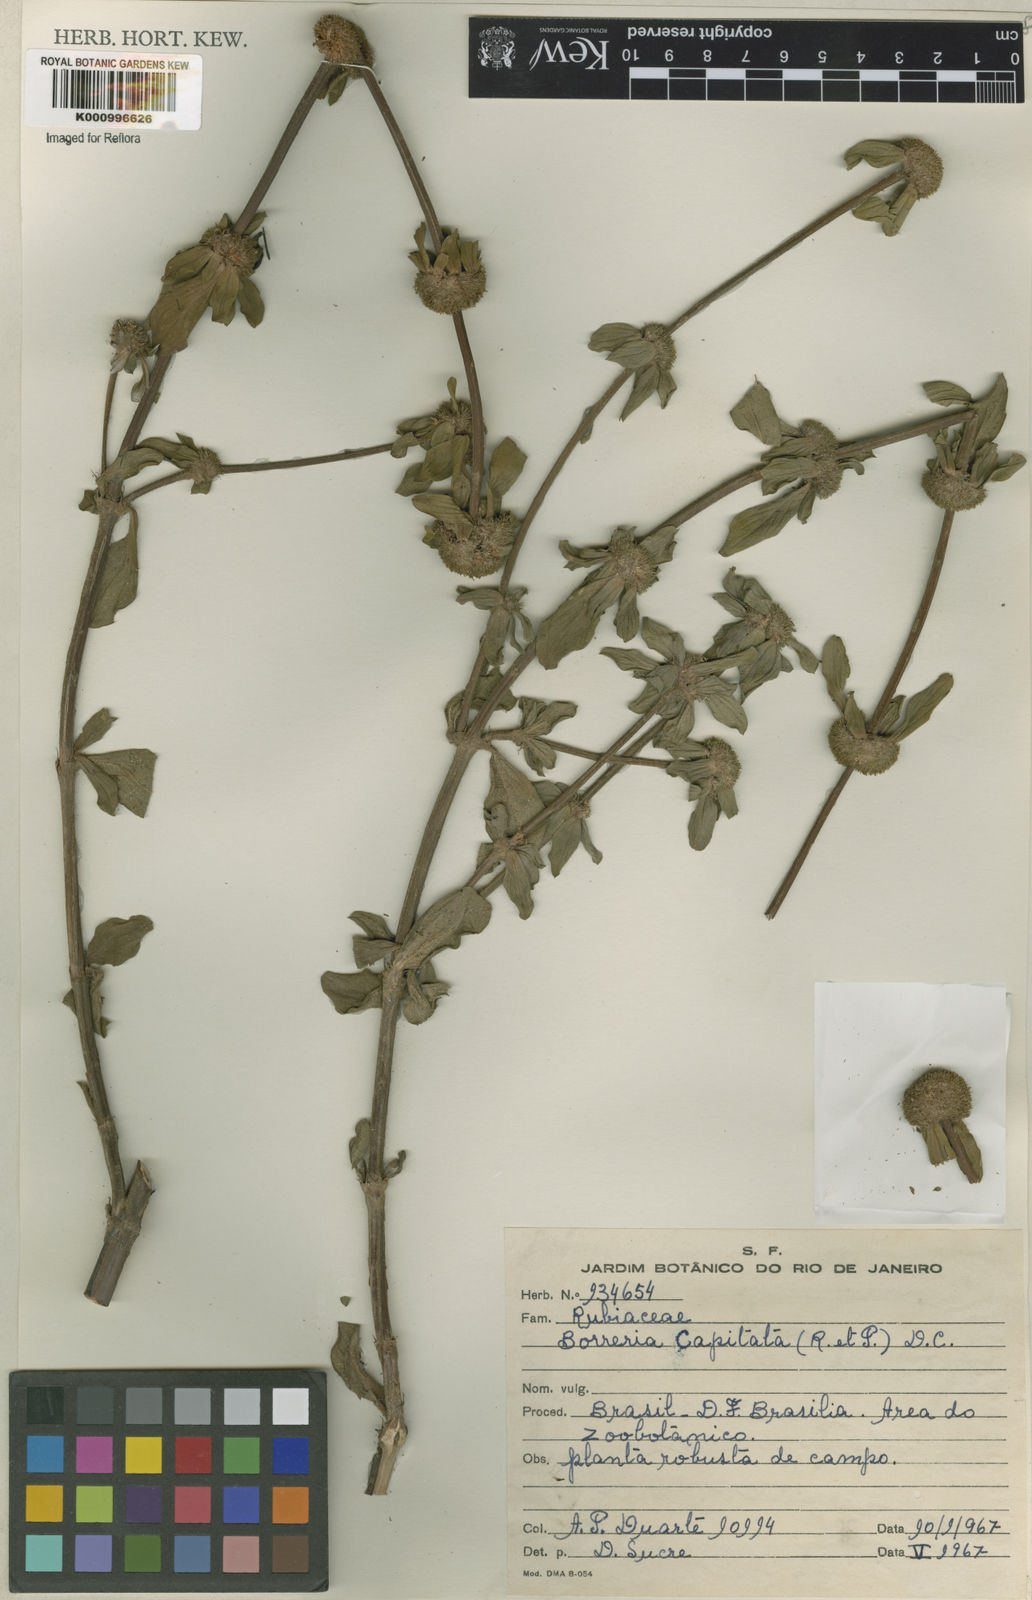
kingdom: Plantae
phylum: Tracheophyta
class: Magnoliopsida
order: Gentianales
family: Rubiaceae
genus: Spermacoce
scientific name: Spermacoce
